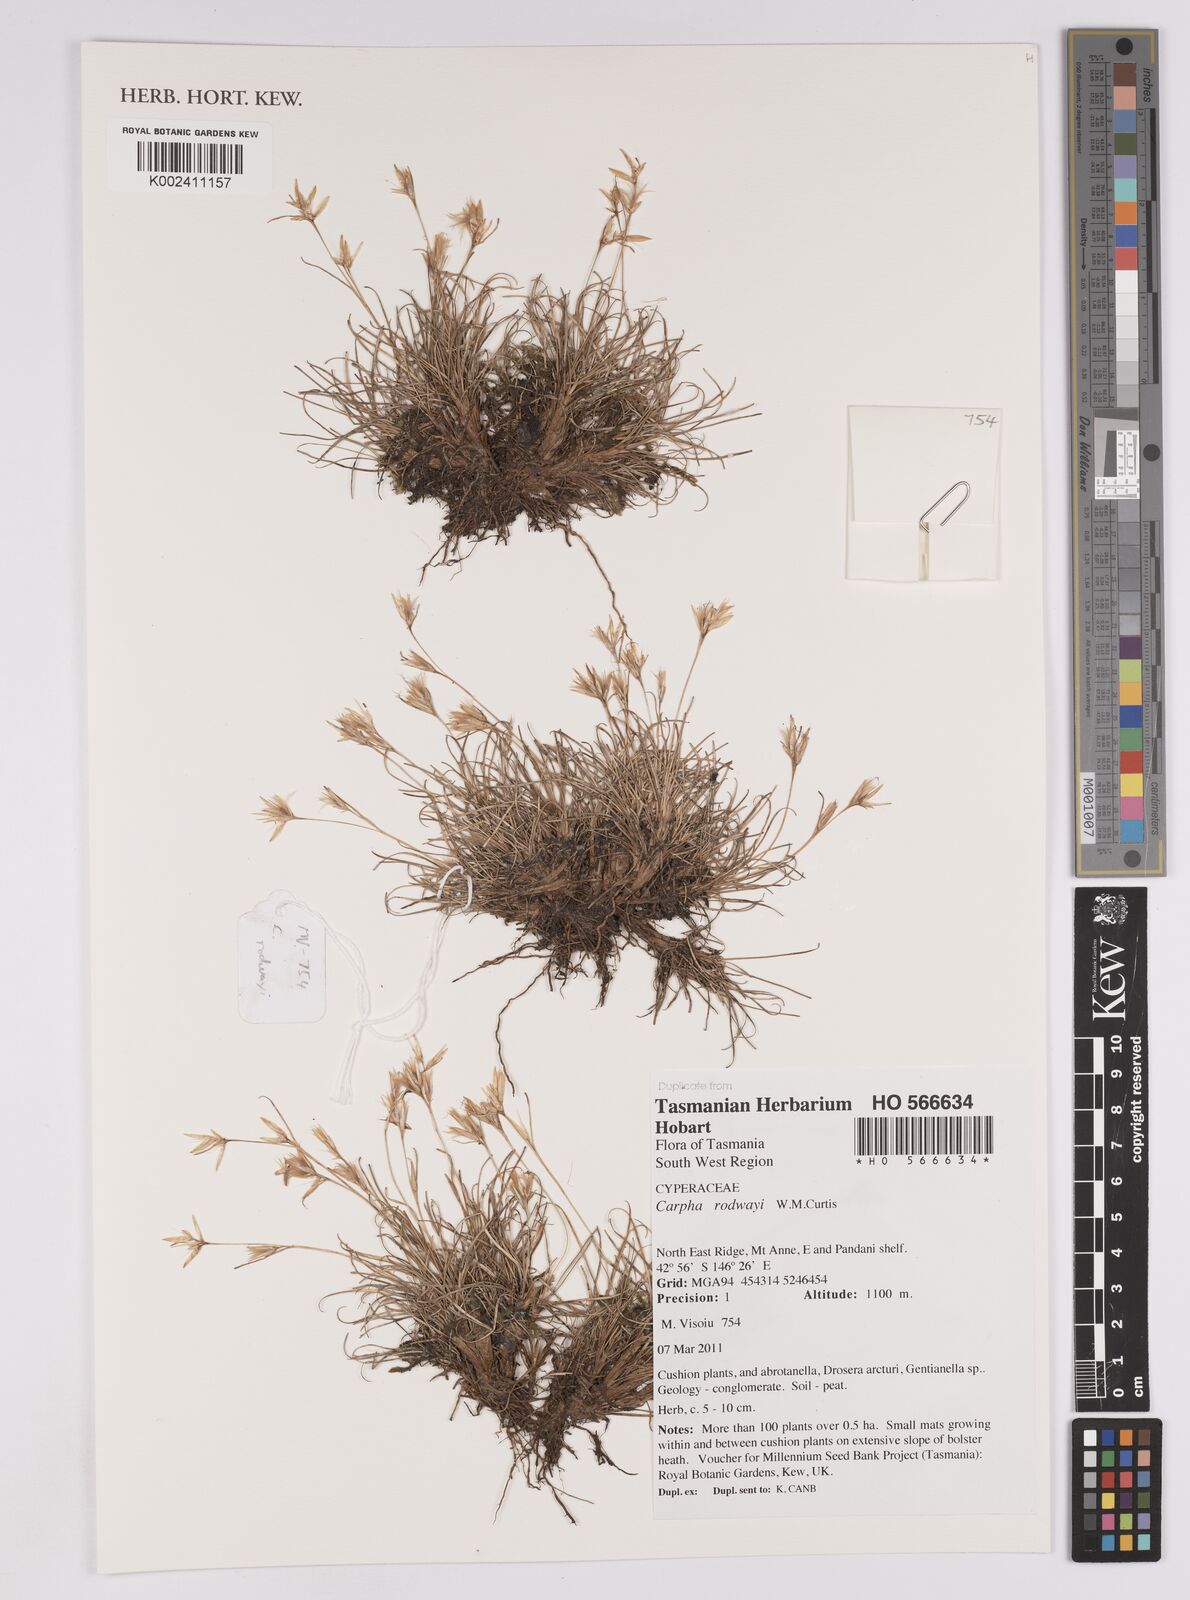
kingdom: Plantae
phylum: Tracheophyta
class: Liliopsida
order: Poales
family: Cyperaceae
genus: Carpha
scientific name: Carpha rodwayi
